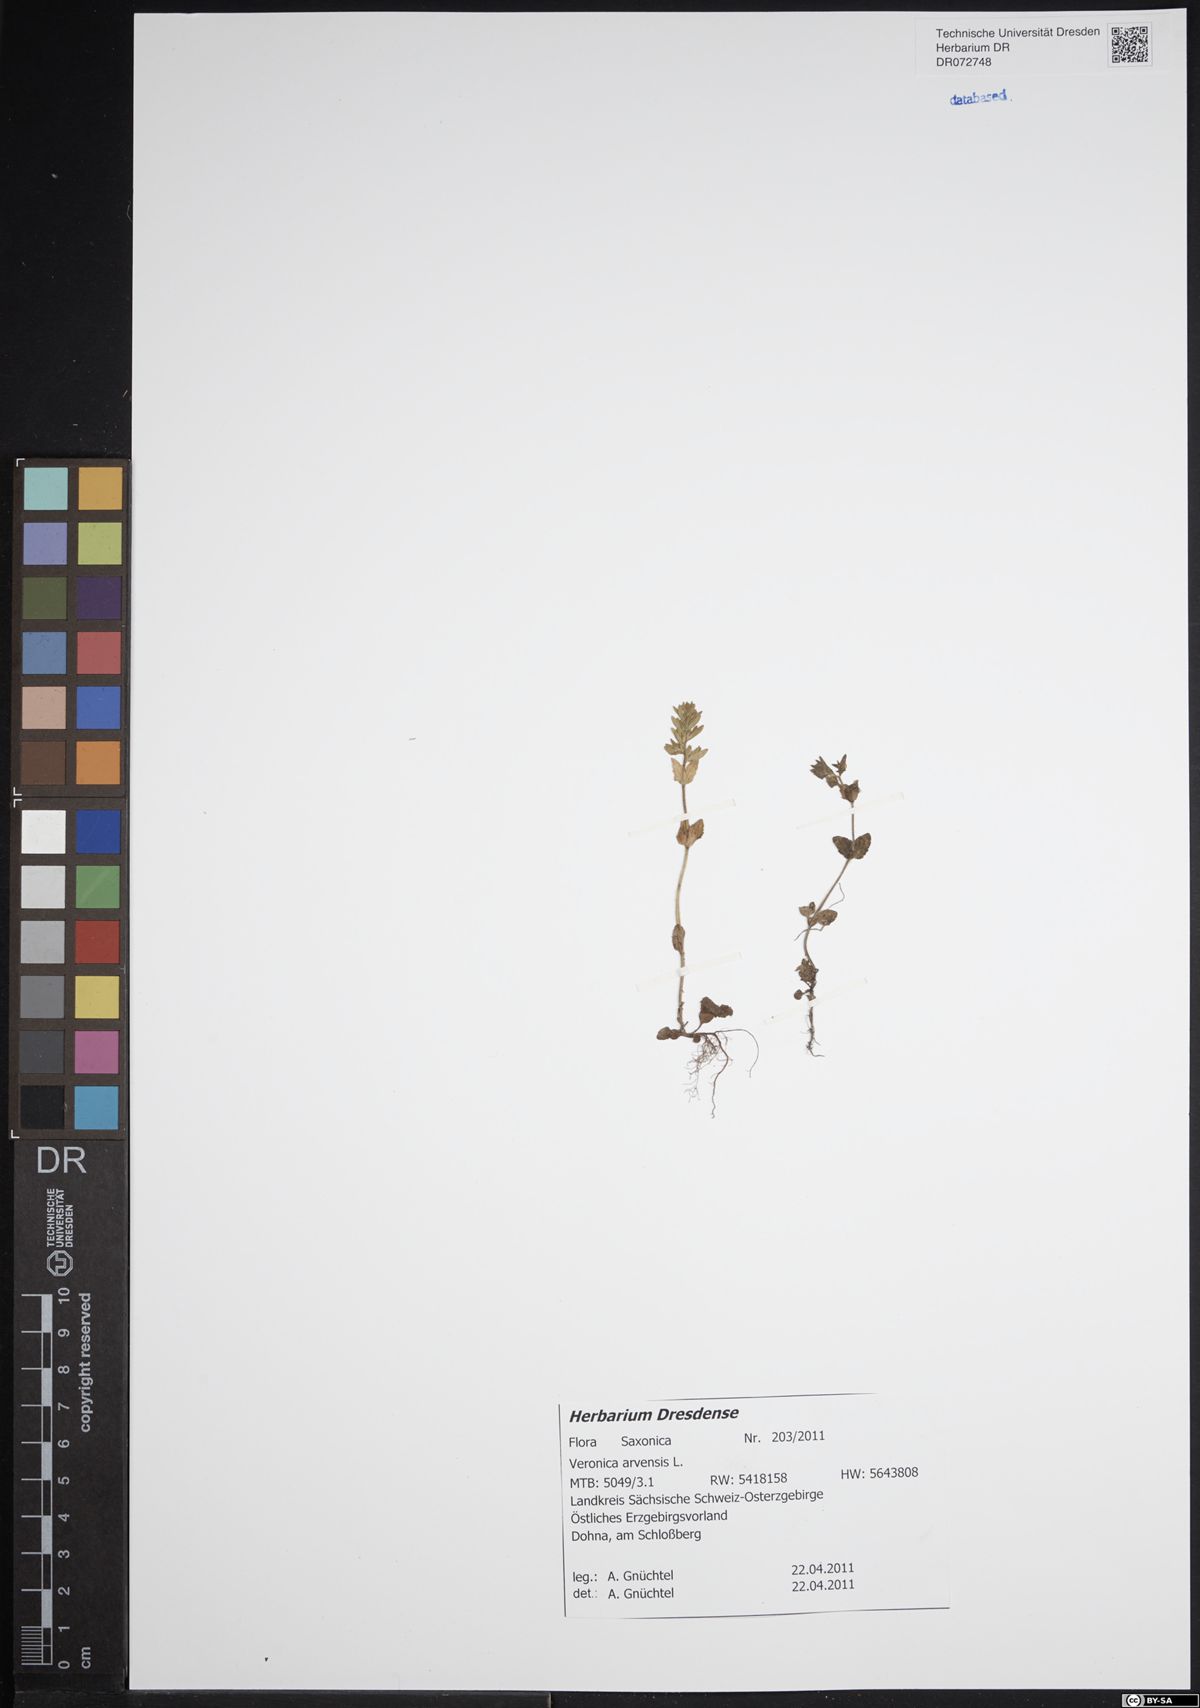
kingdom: Plantae
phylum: Tracheophyta
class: Magnoliopsida
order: Lamiales
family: Plantaginaceae
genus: Veronica
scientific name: Veronica arvensis
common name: Corn speedwell
